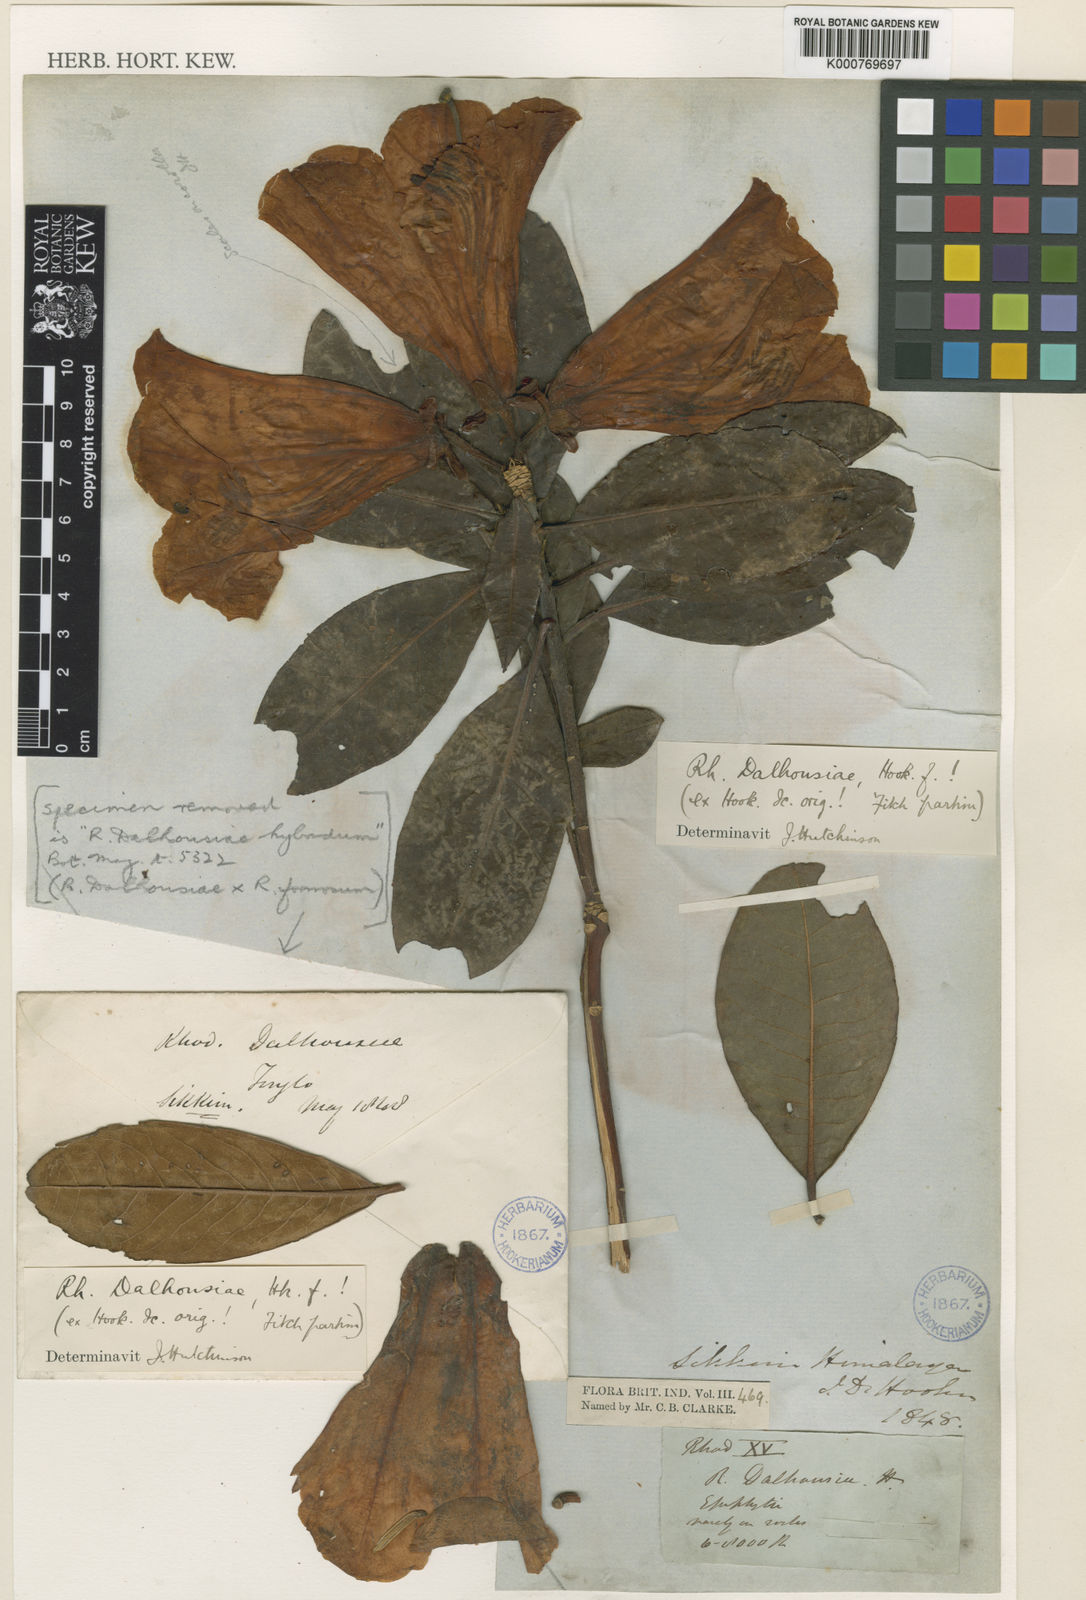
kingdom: Plantae
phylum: Tracheophyta
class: Magnoliopsida
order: Ericales
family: Ericaceae
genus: Rhododendron
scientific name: Rhododendron dalhousieae
